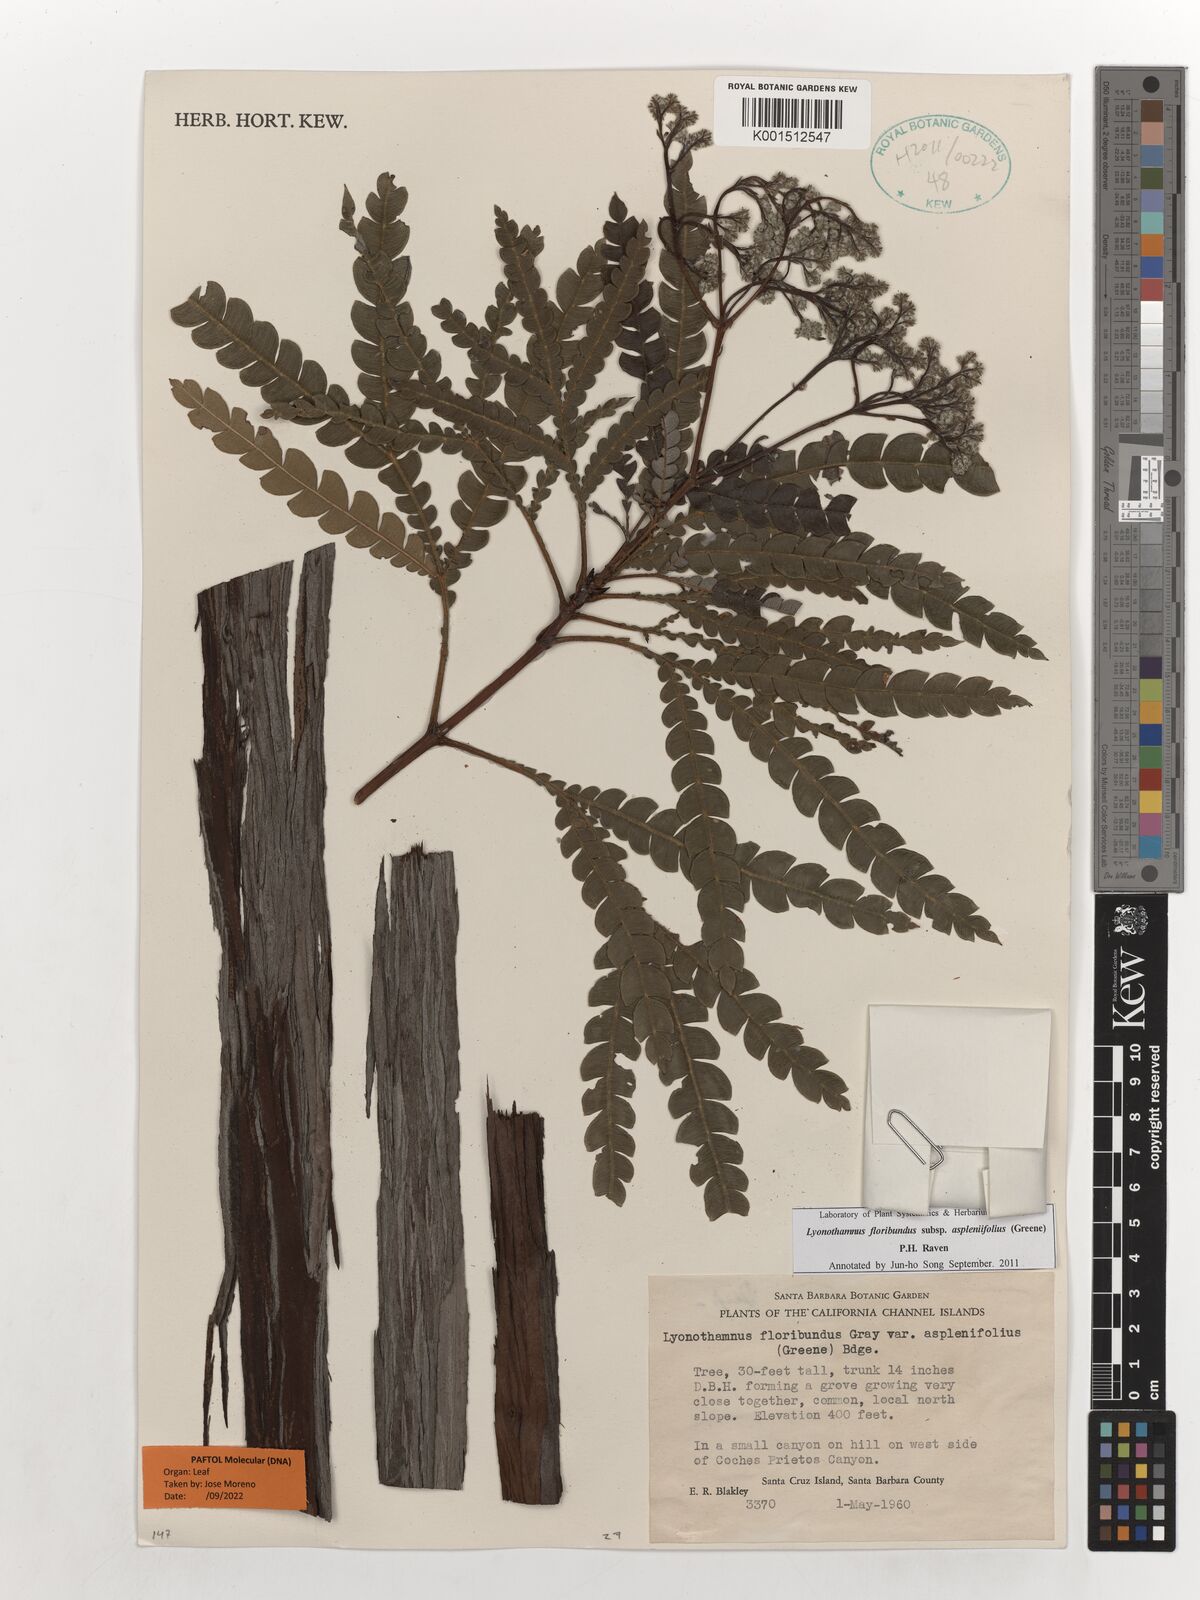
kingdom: Plantae
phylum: Tracheophyta
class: Magnoliopsida
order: Rosales
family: Rosaceae
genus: Lyonothamnus
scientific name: Lyonothamnus floribundus
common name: Catalina ironwood
